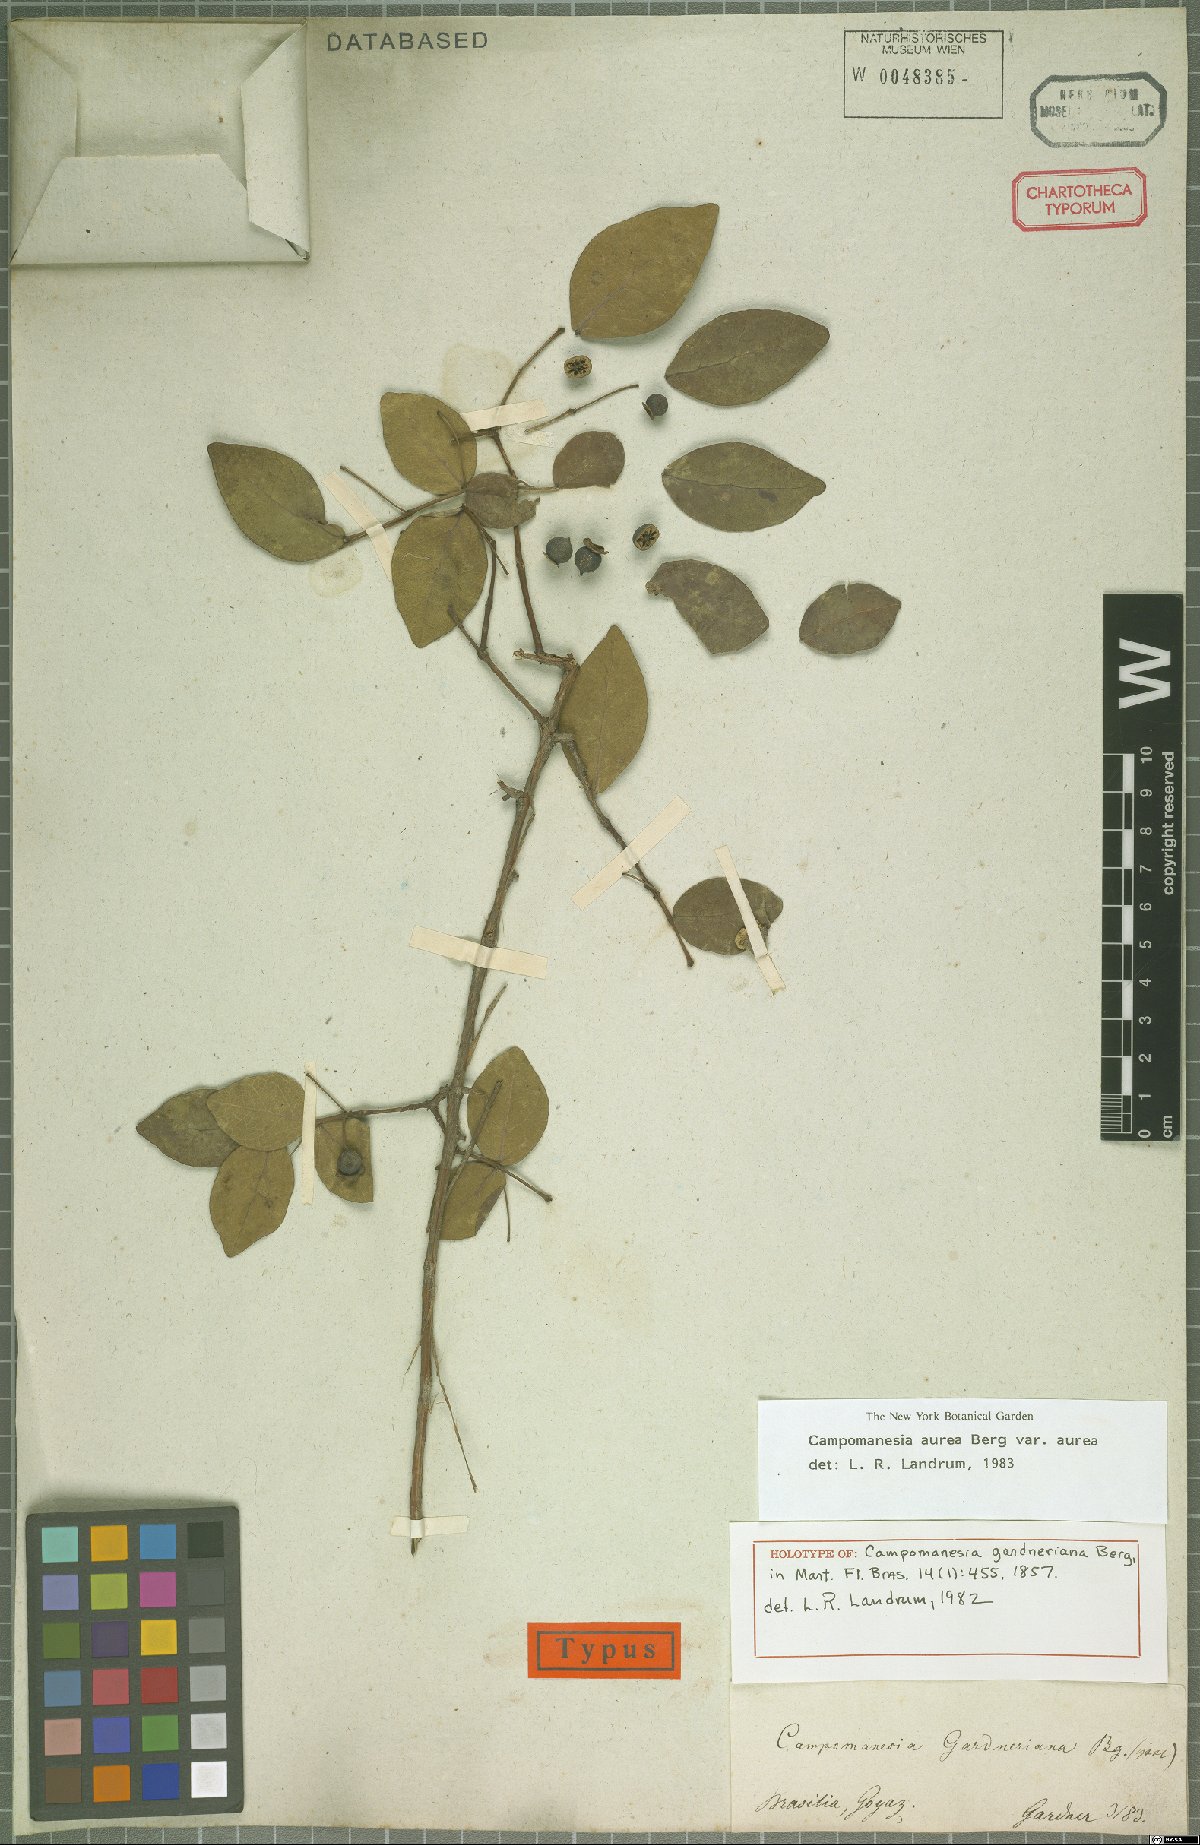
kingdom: Plantae
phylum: Tracheophyta
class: Magnoliopsida
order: Myrtales
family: Myrtaceae
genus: Campomanesia
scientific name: Campomanesia aurea
